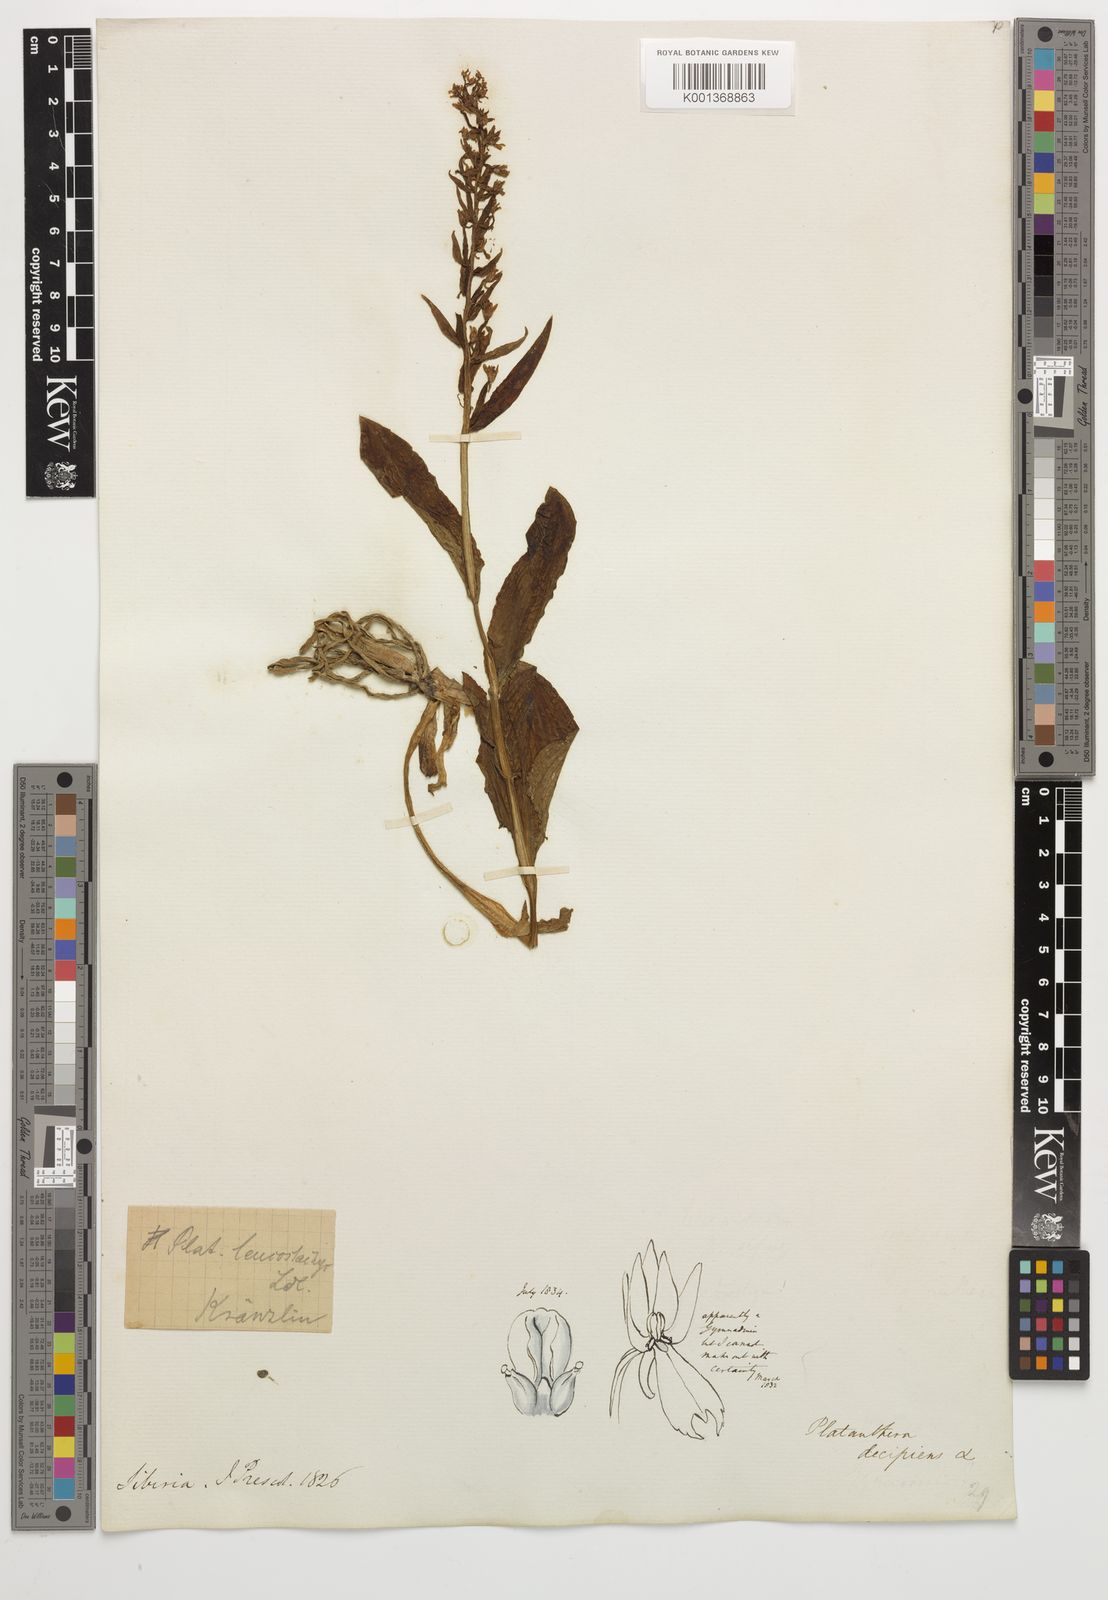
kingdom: Plantae
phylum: Tracheophyta
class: Liliopsida
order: Asparagales
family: Orchidaceae
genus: Galearis
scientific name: Galearis camtschatica
